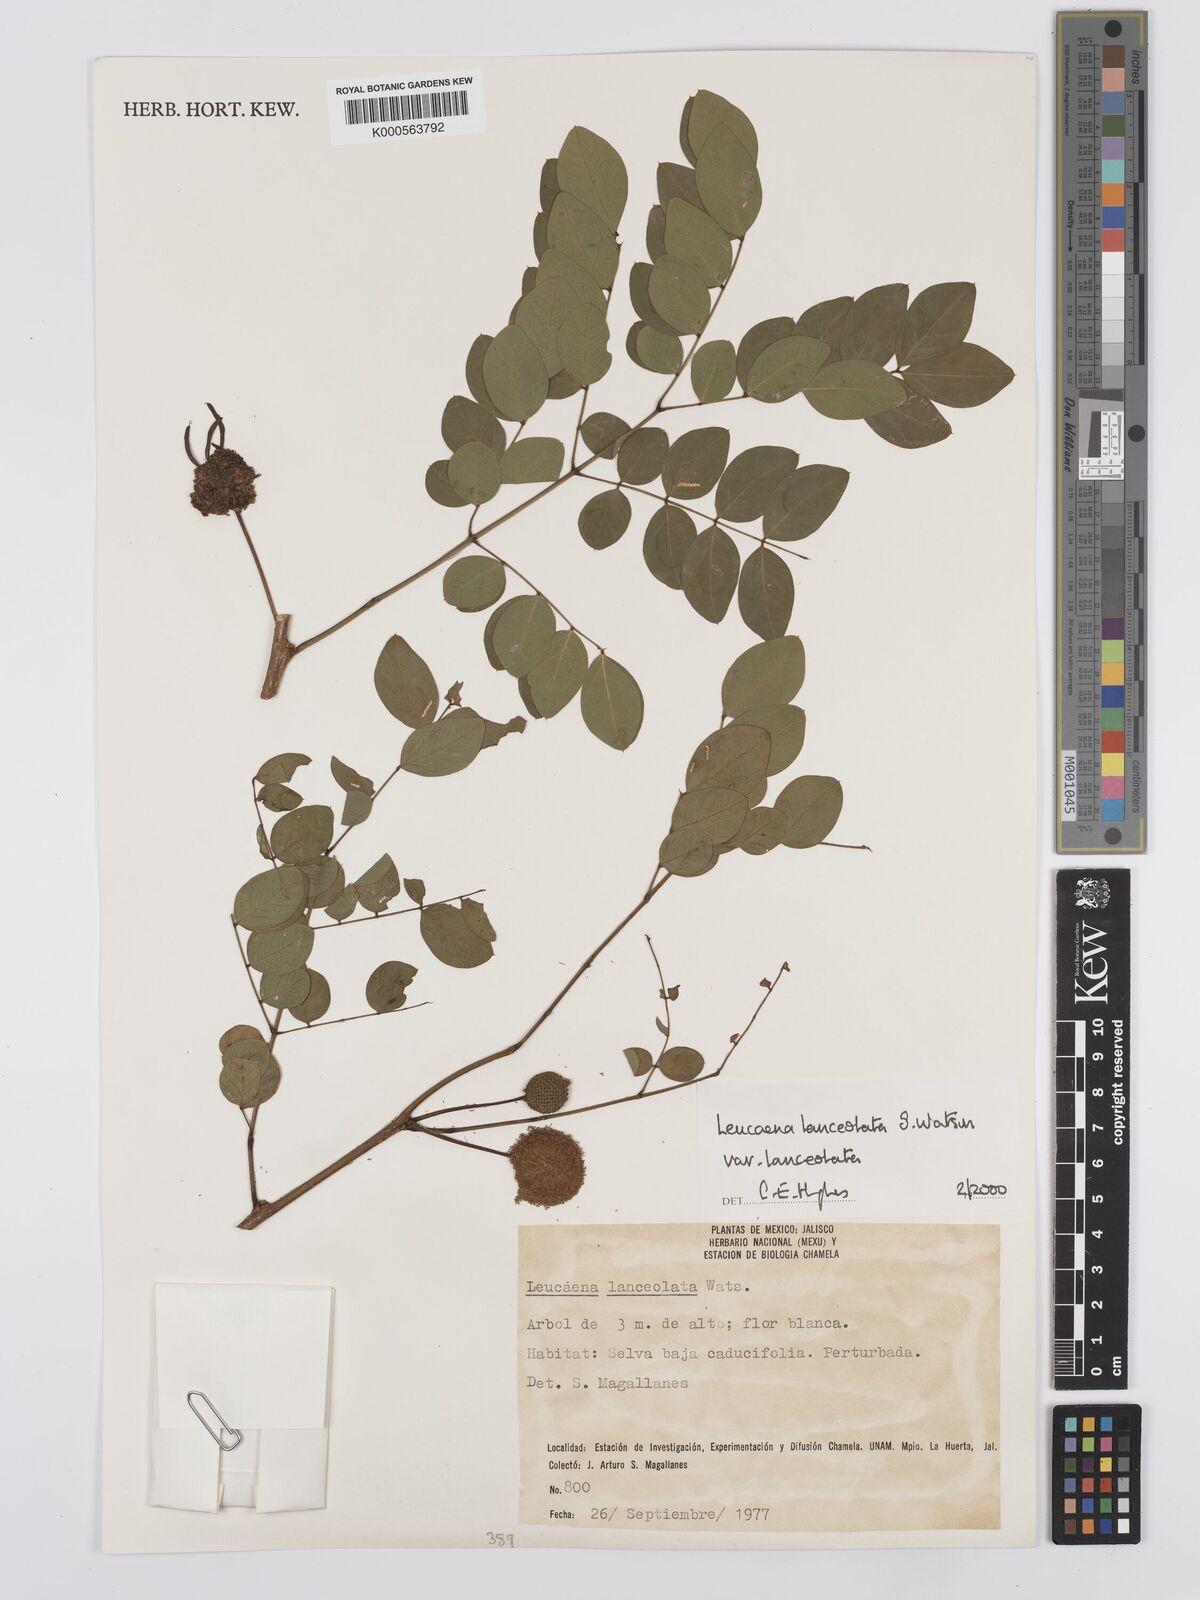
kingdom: Plantae
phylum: Tracheophyta
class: Magnoliopsida
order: Fabales
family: Fabaceae
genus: Leucaena
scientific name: Leucaena lanceolata
